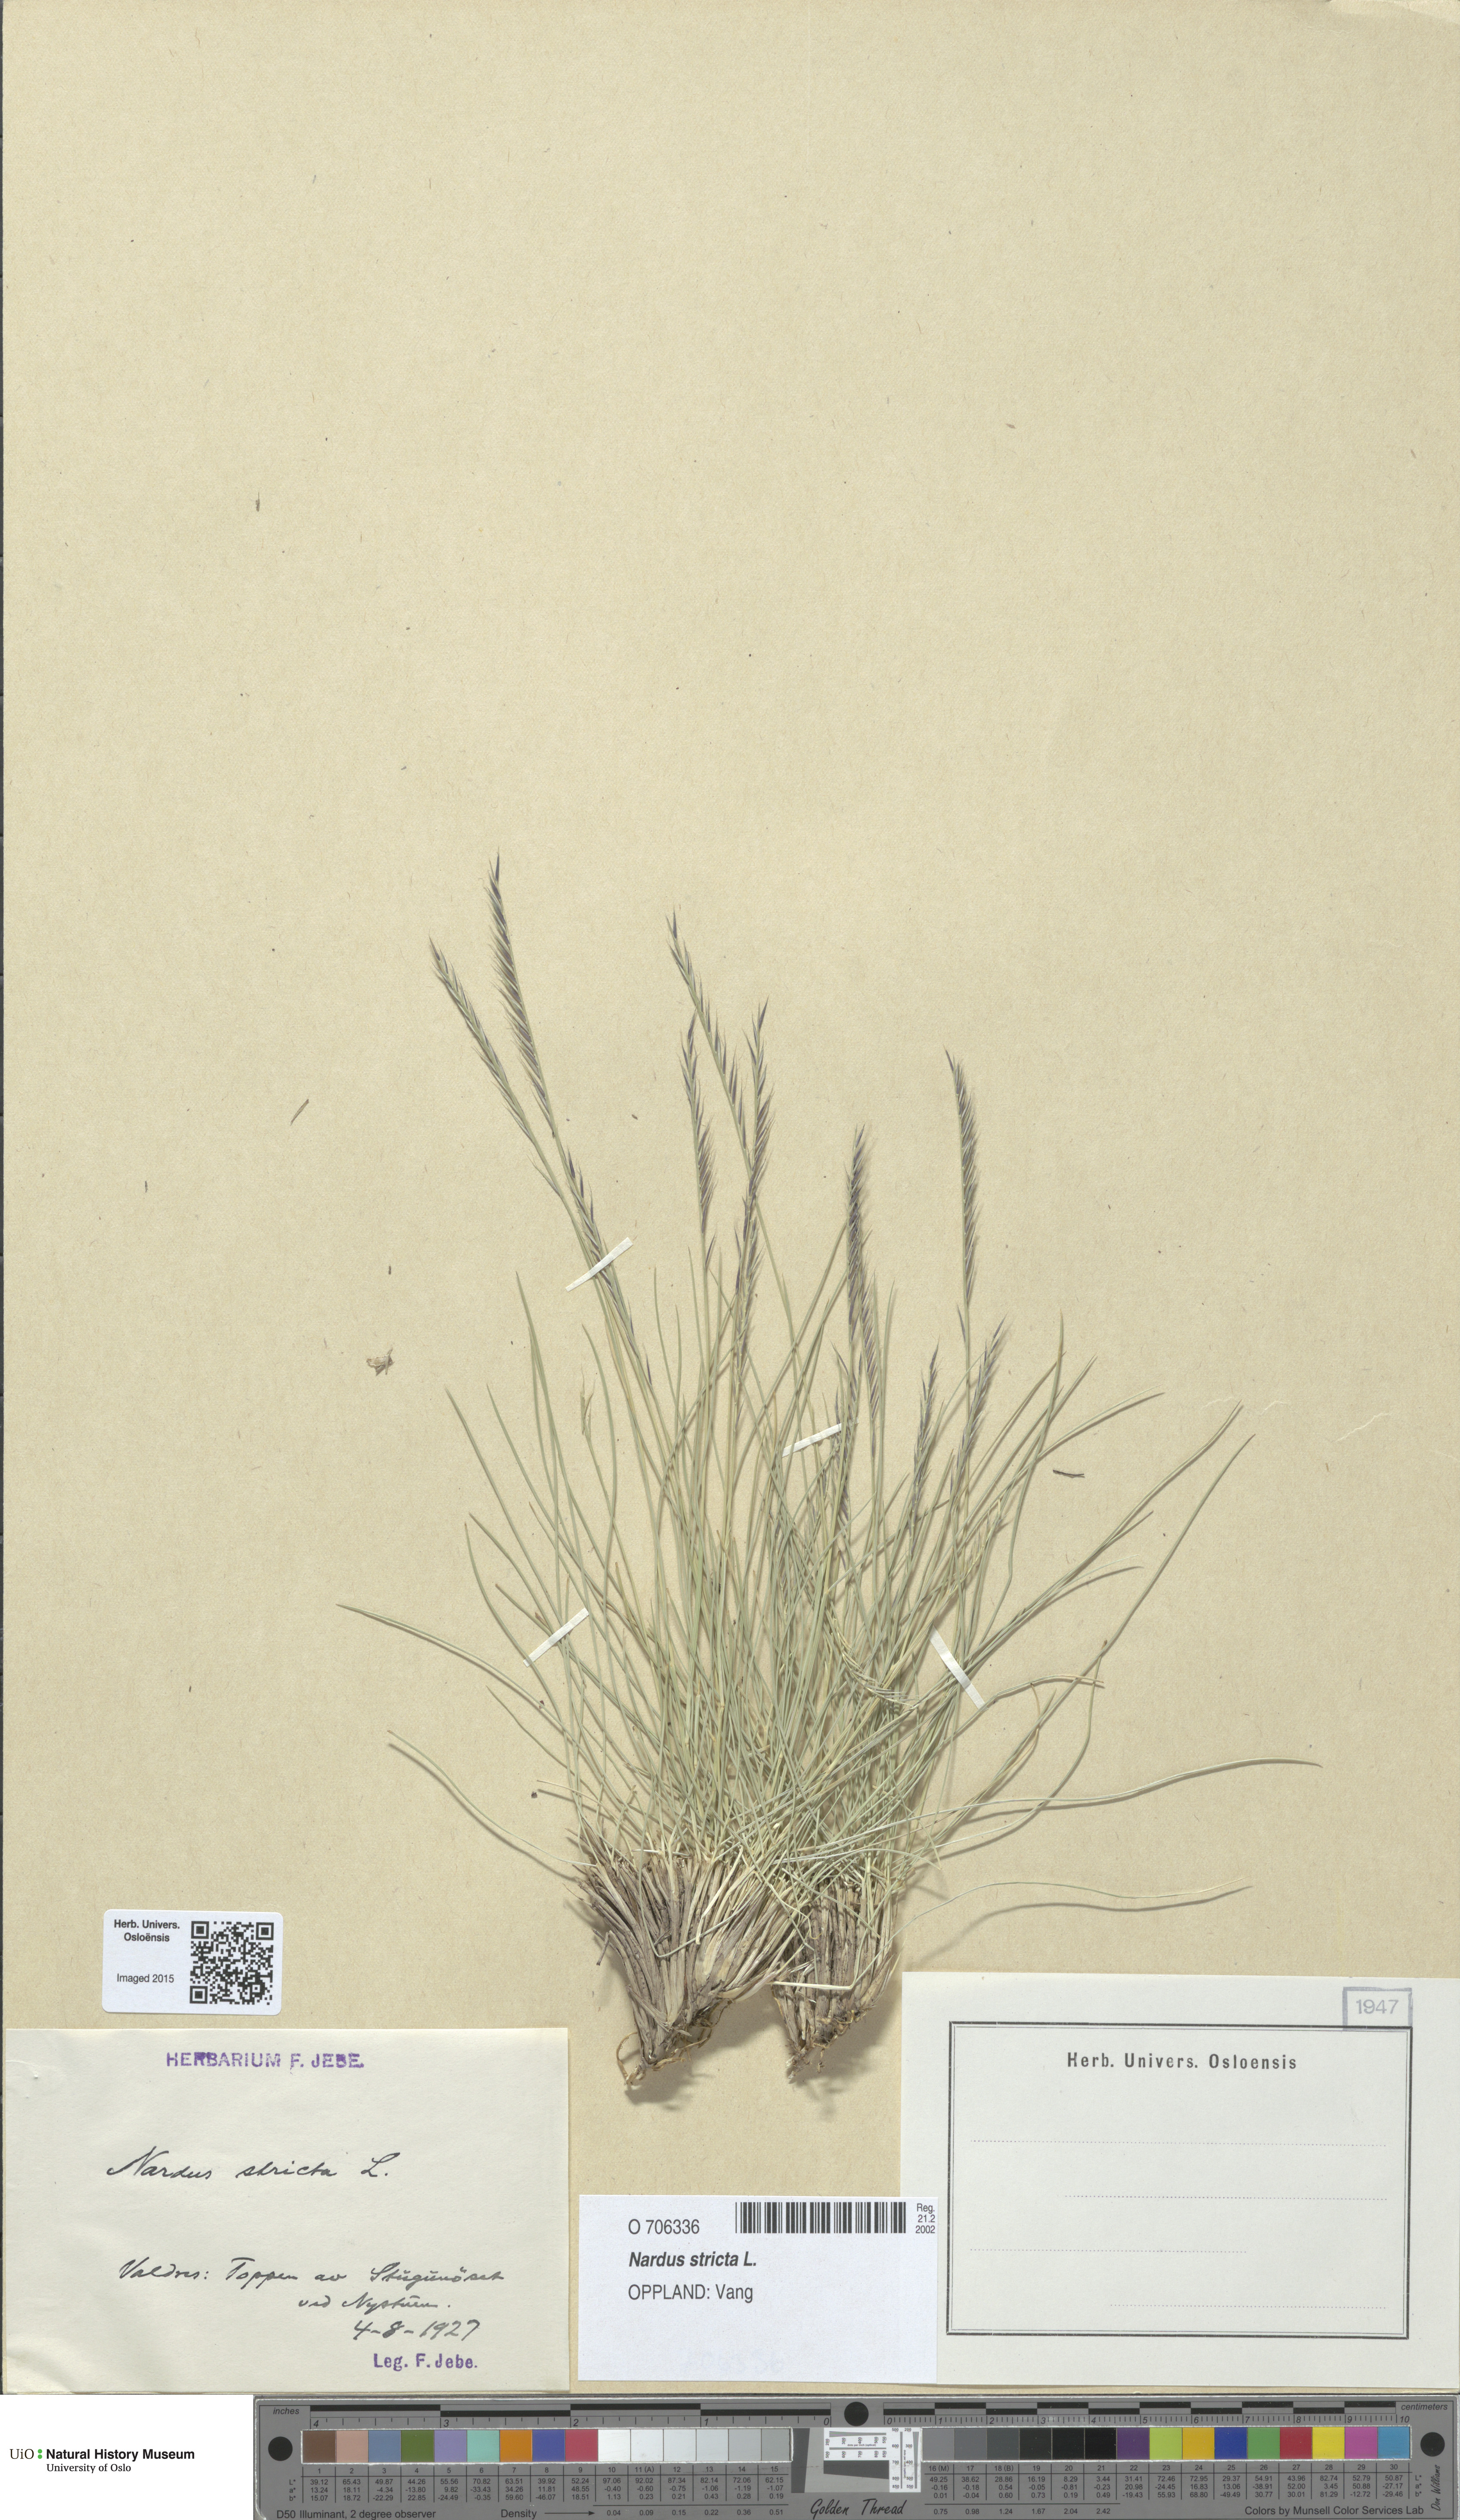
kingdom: Plantae
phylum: Tracheophyta
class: Liliopsida
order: Poales
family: Poaceae
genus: Nardus
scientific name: Nardus stricta
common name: Mat-grass
